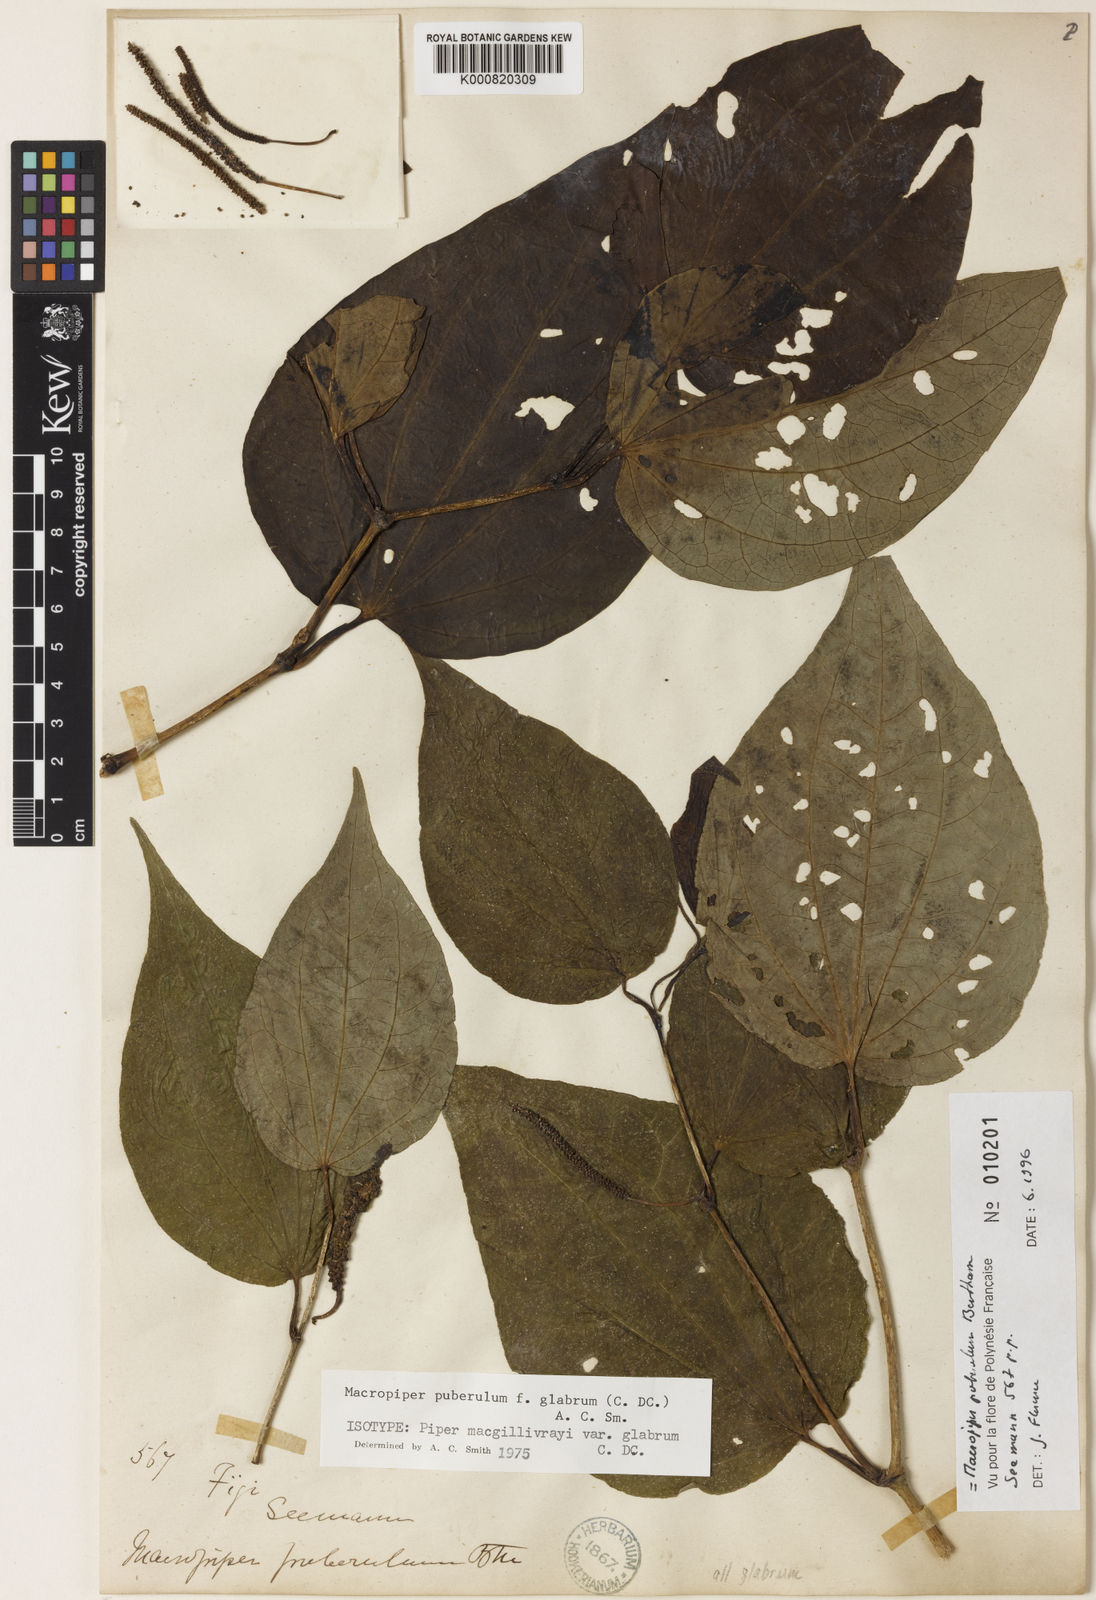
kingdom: Plantae
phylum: Tracheophyta
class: Magnoliopsida
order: Piperales
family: Piperaceae
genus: Macropiper
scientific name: Macropiper puberulum
